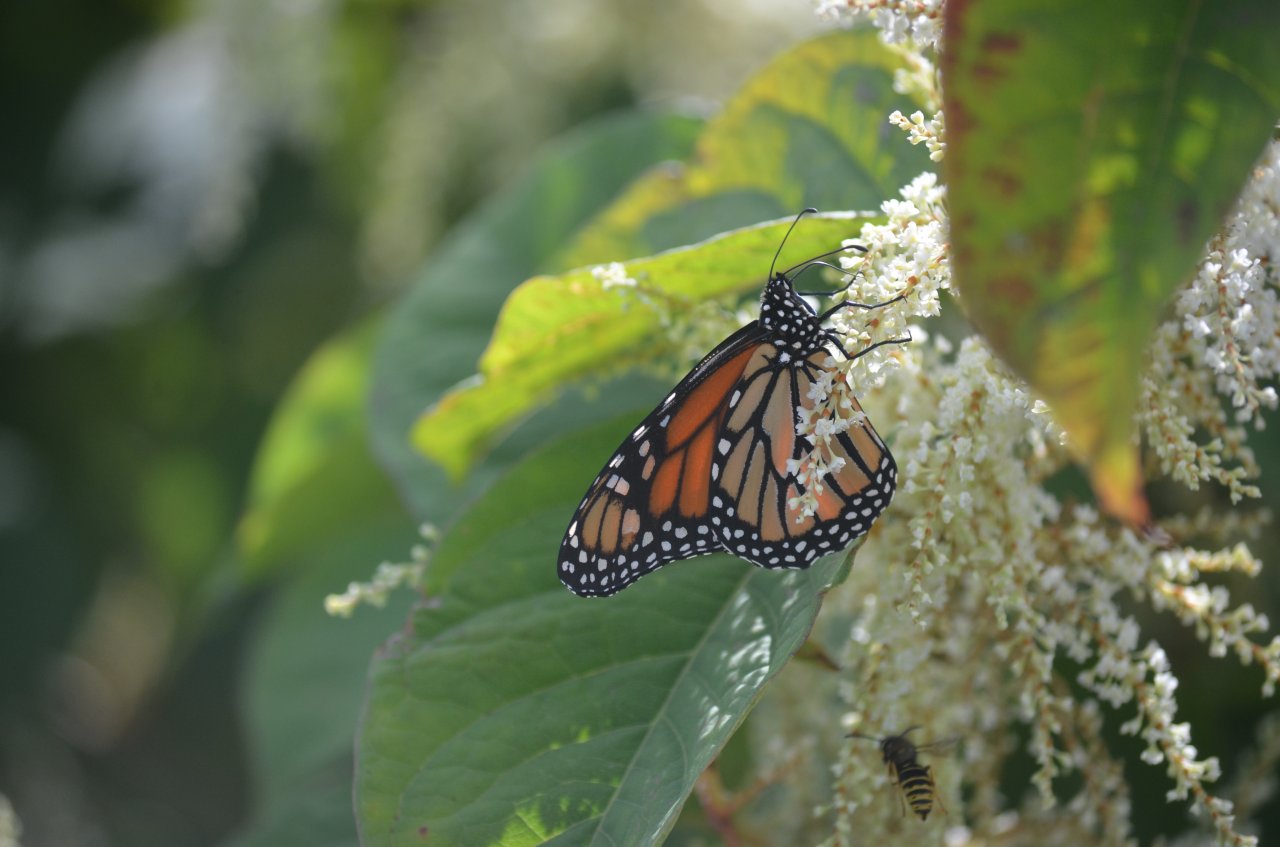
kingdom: Animalia
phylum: Arthropoda
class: Insecta
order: Lepidoptera
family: Nymphalidae
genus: Danaus
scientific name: Danaus plexippus
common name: Monarch
